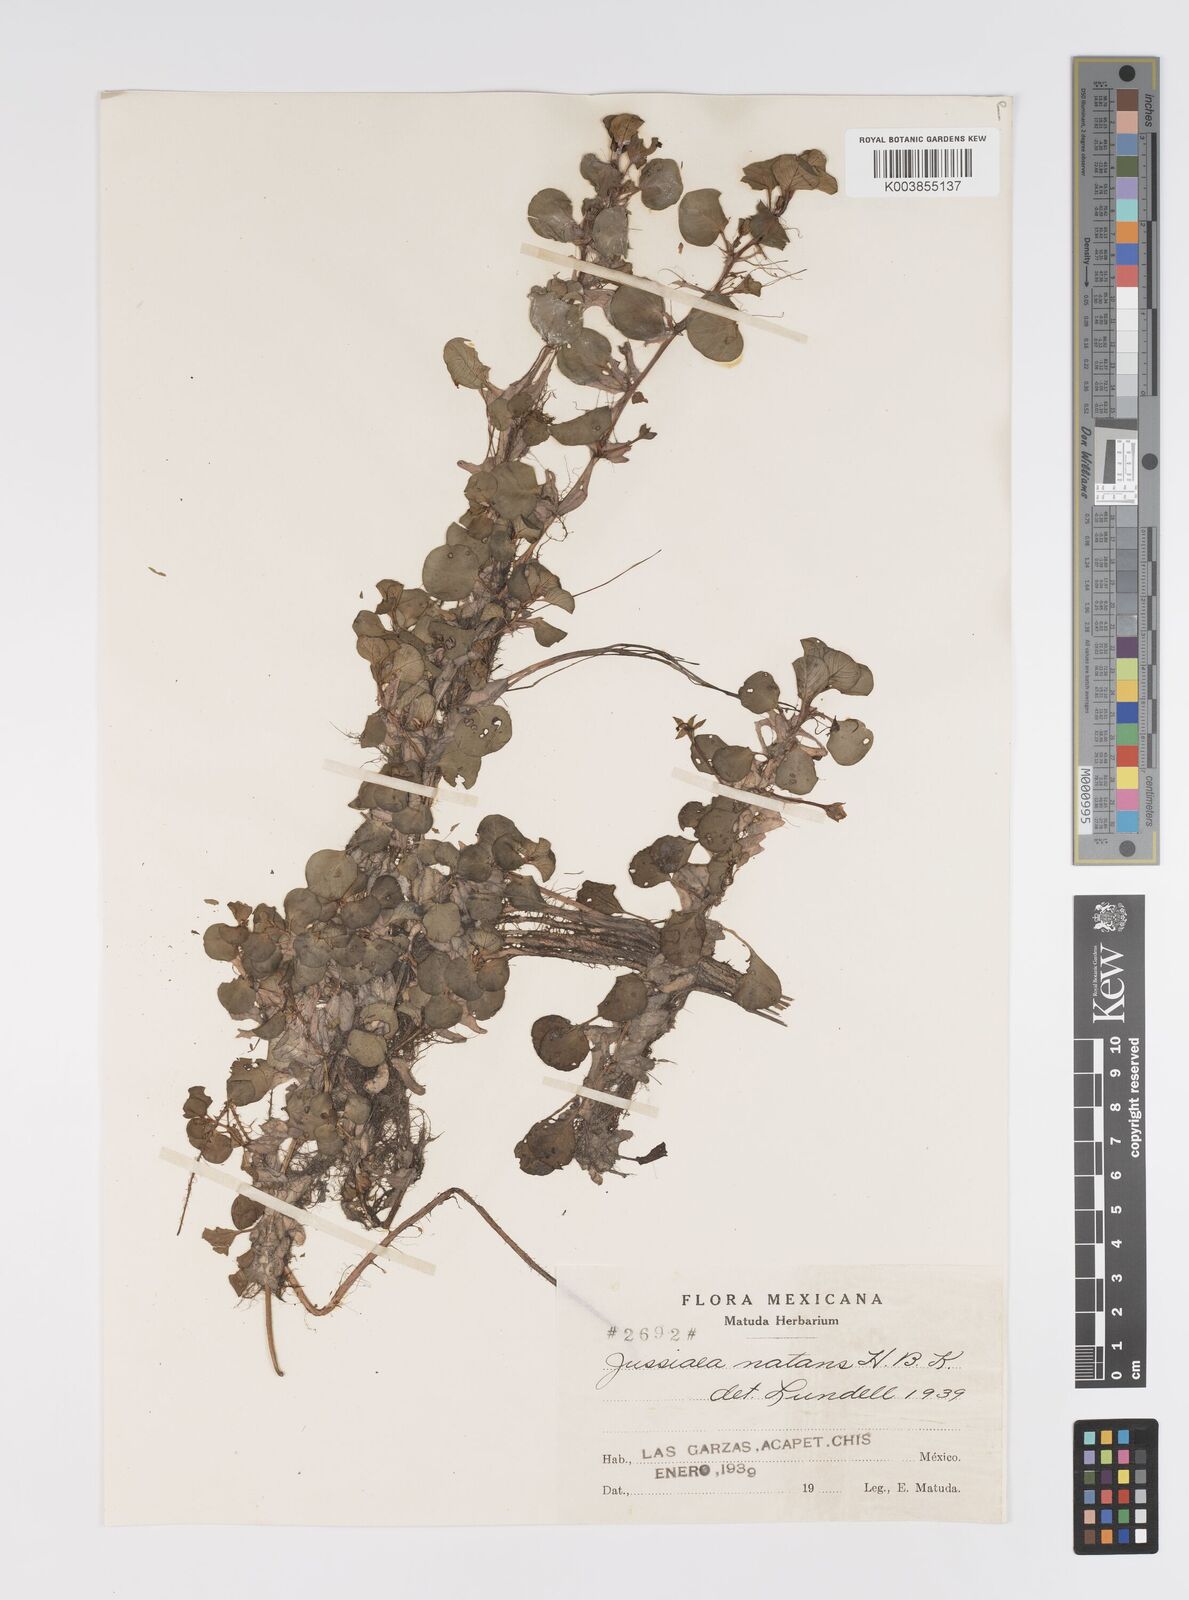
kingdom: Plantae
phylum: Tracheophyta
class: Magnoliopsida
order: Myrtales
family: Onagraceae
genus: Ludwigia
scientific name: Ludwigia helminthorrhiza
